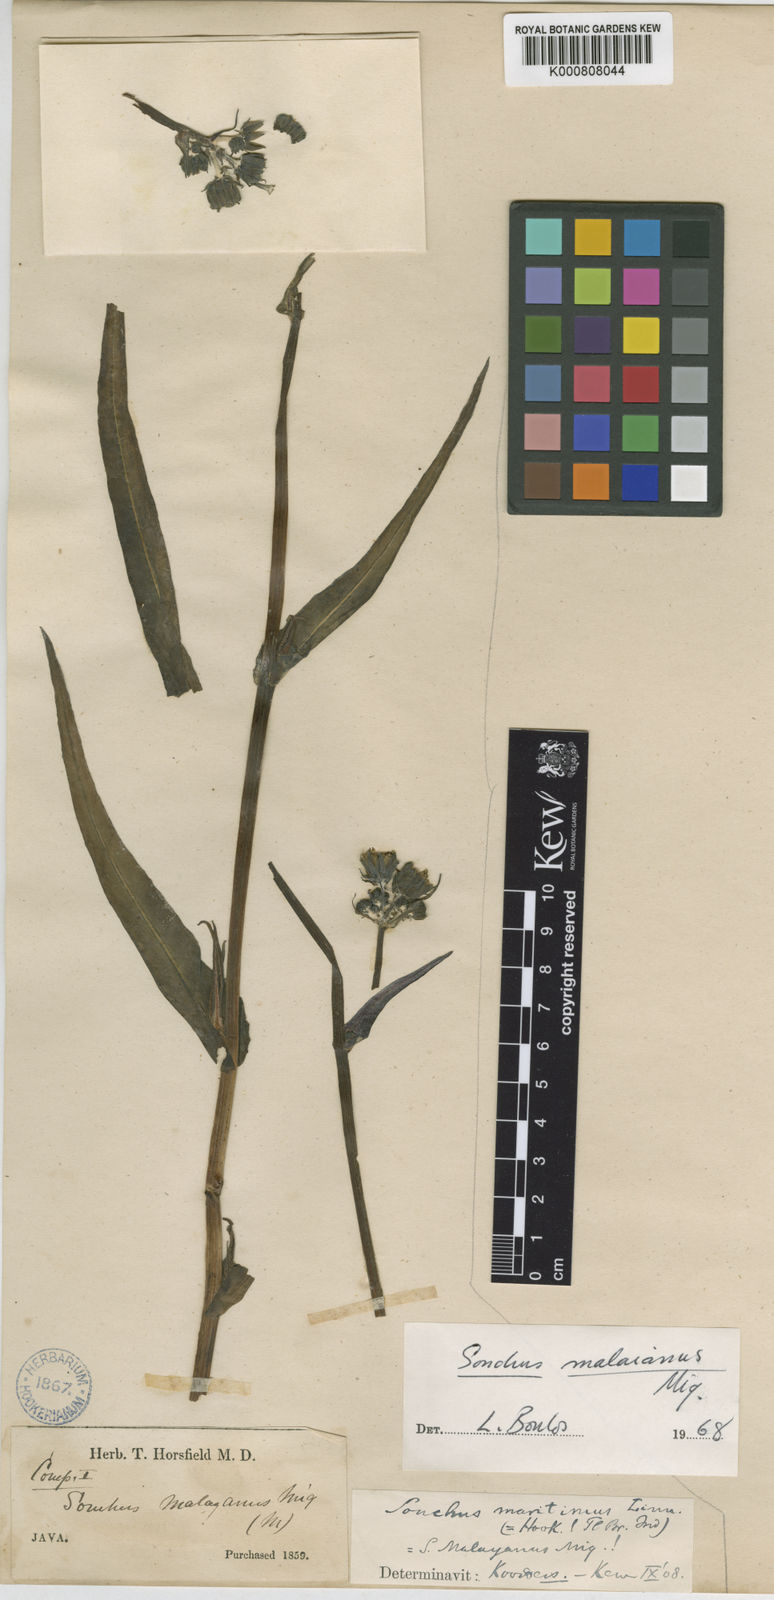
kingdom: Plantae
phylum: Tracheophyta
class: Magnoliopsida
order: Asterales
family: Asteraceae
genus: Sonchus
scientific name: Sonchus maritimus
